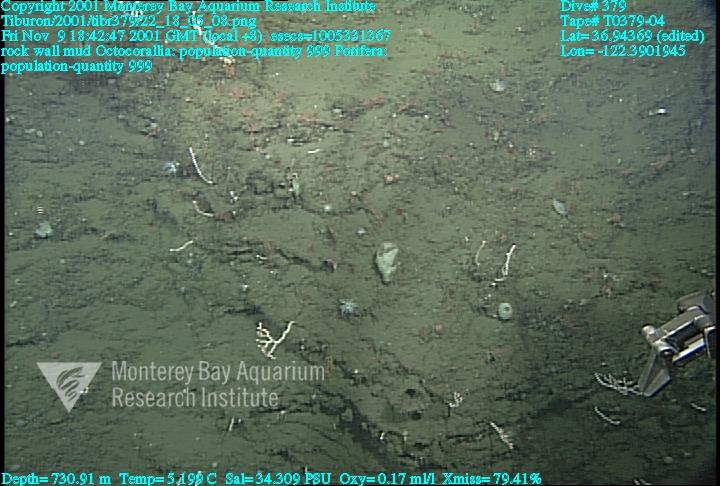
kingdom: Animalia
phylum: Porifera
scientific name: Porifera
